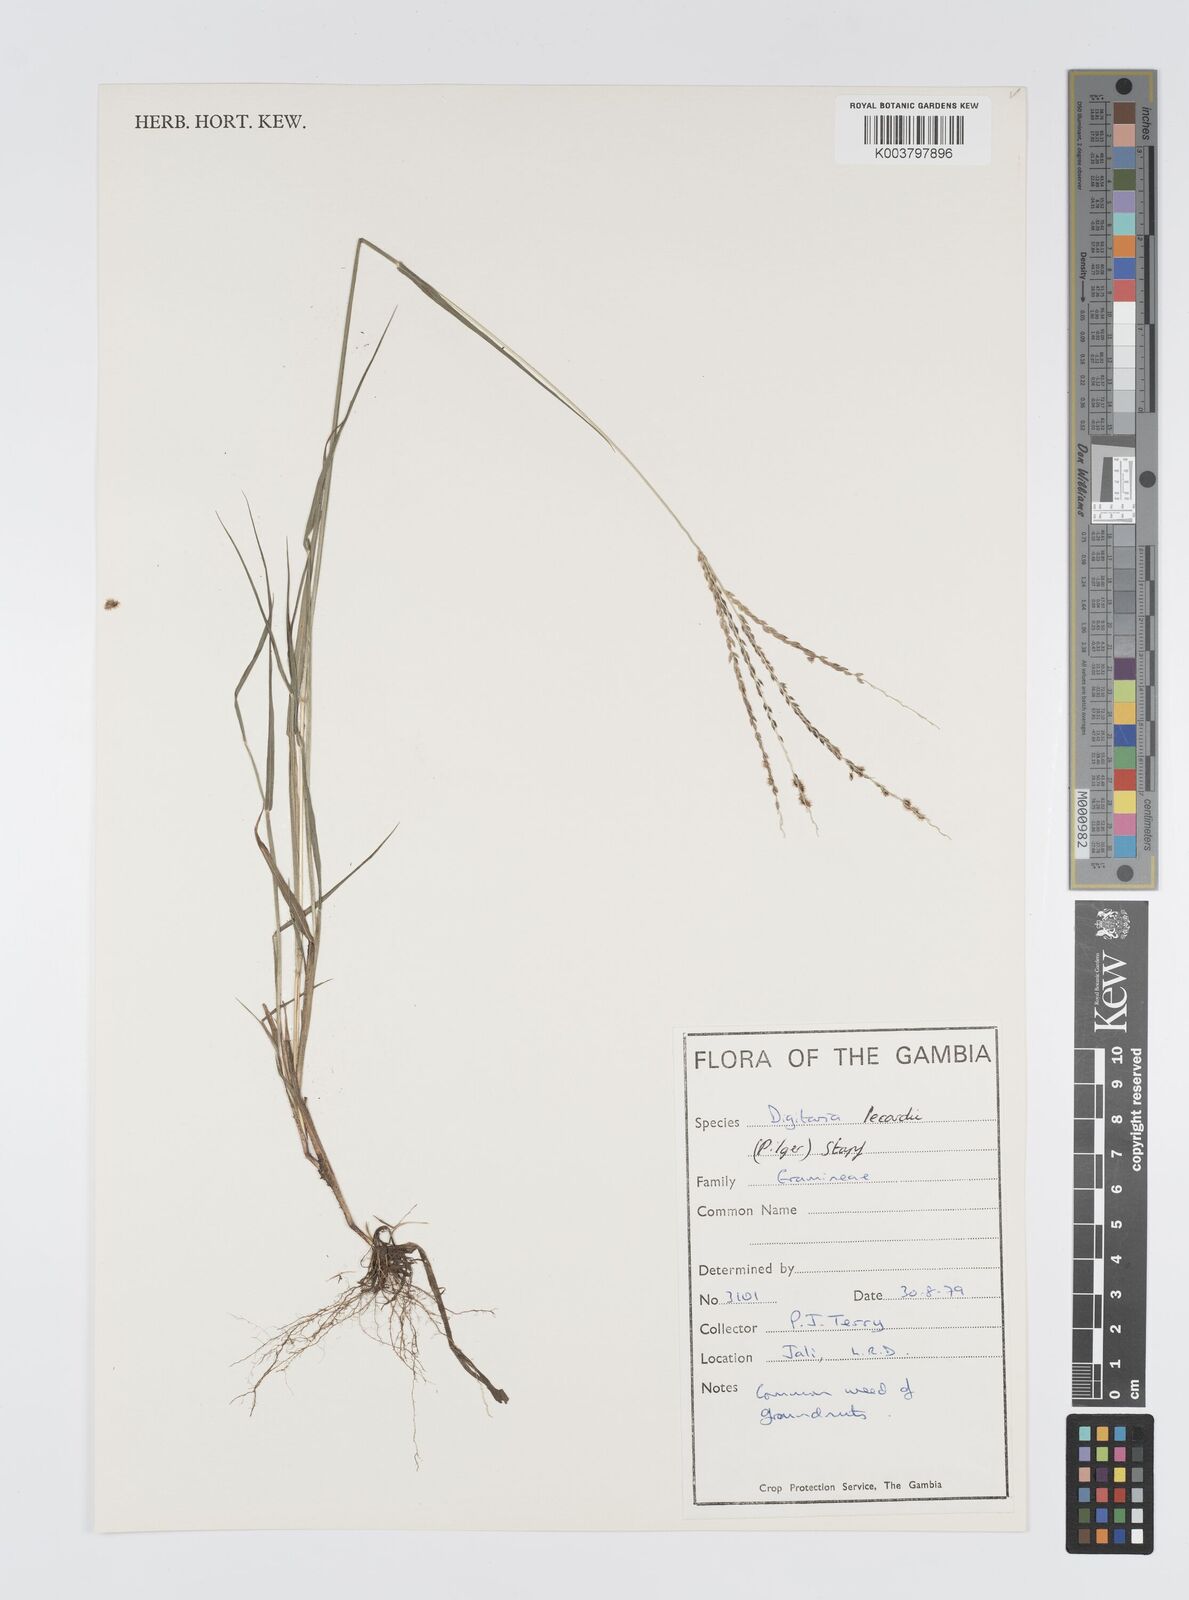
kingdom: Plantae
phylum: Tracheophyta
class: Liliopsida
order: Poales
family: Poaceae
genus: Digitaria
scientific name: Digitaria argillacea
